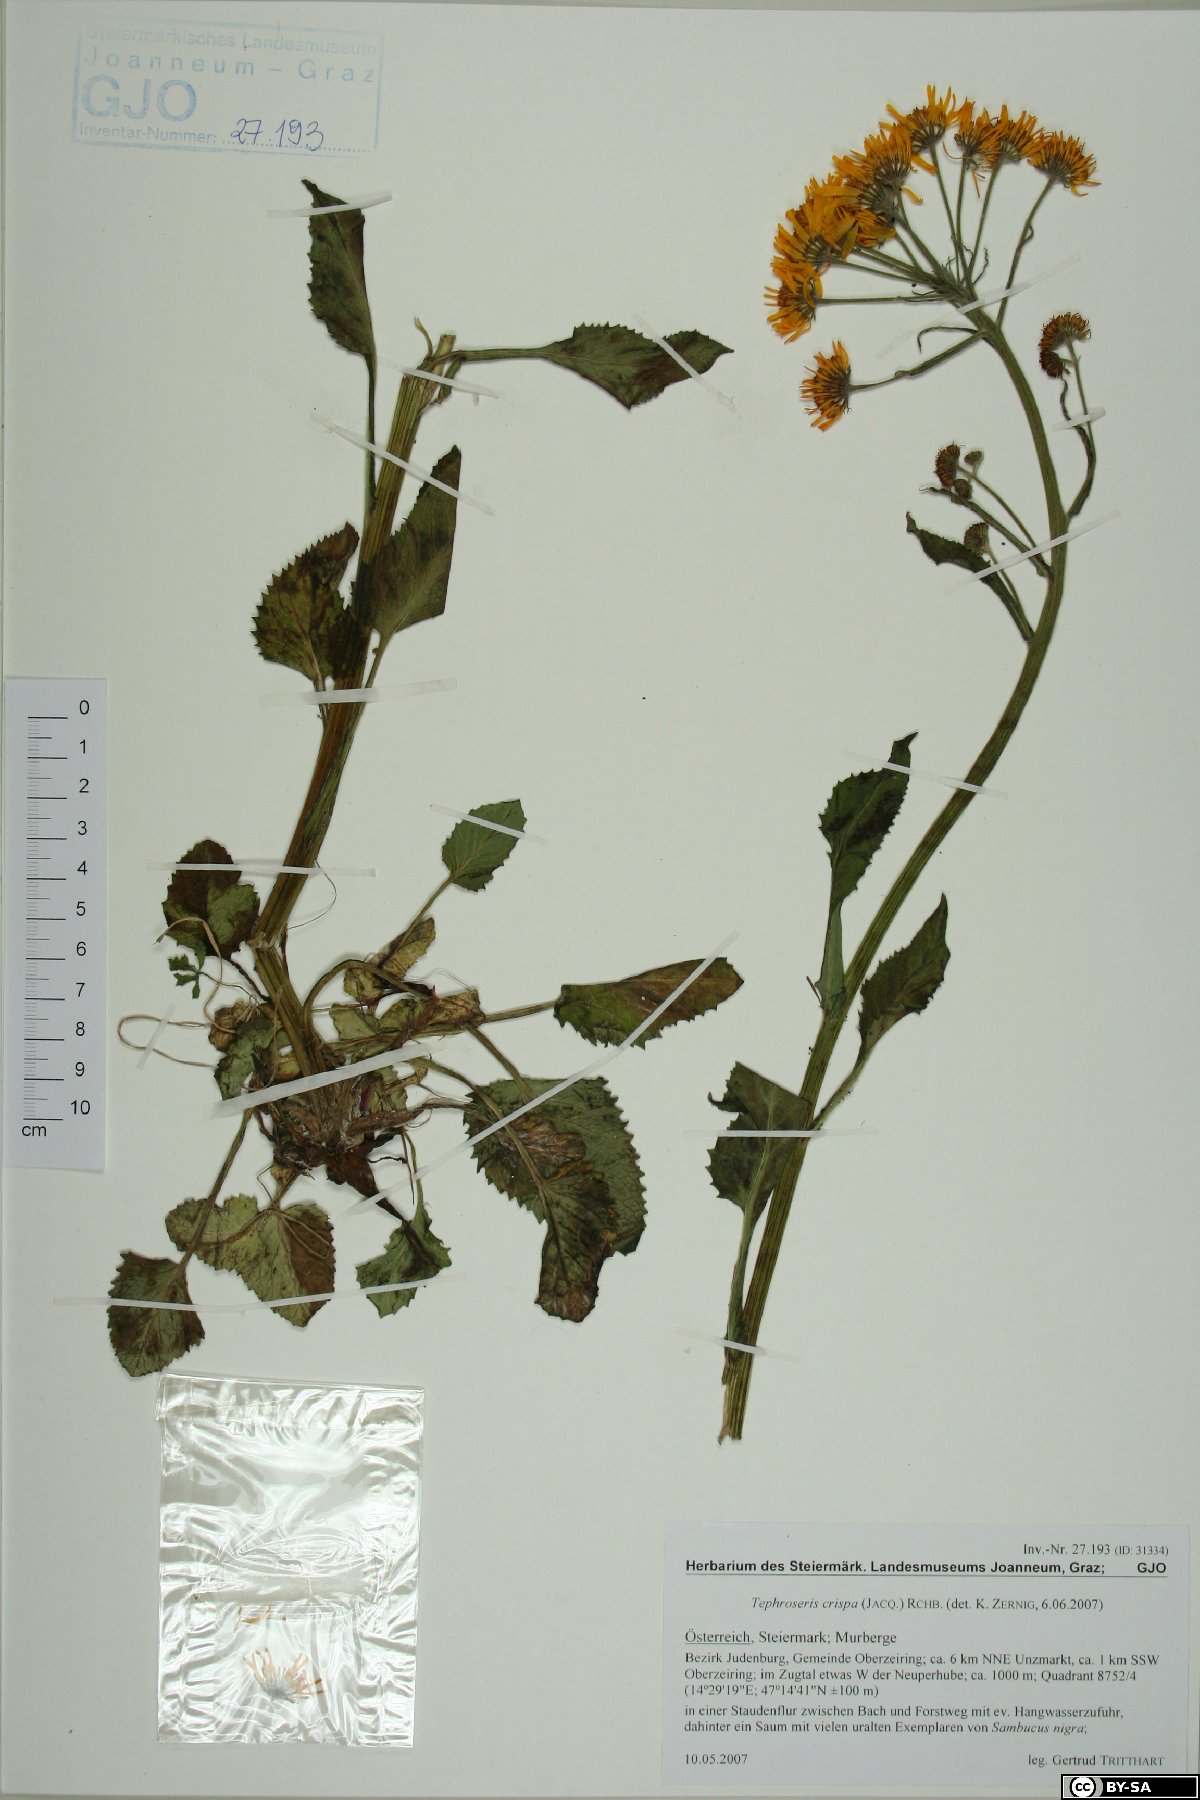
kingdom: Plantae
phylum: Tracheophyta
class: Magnoliopsida
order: Asterales
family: Asteraceae
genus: Tephroseris
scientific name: Tephroseris crispa
